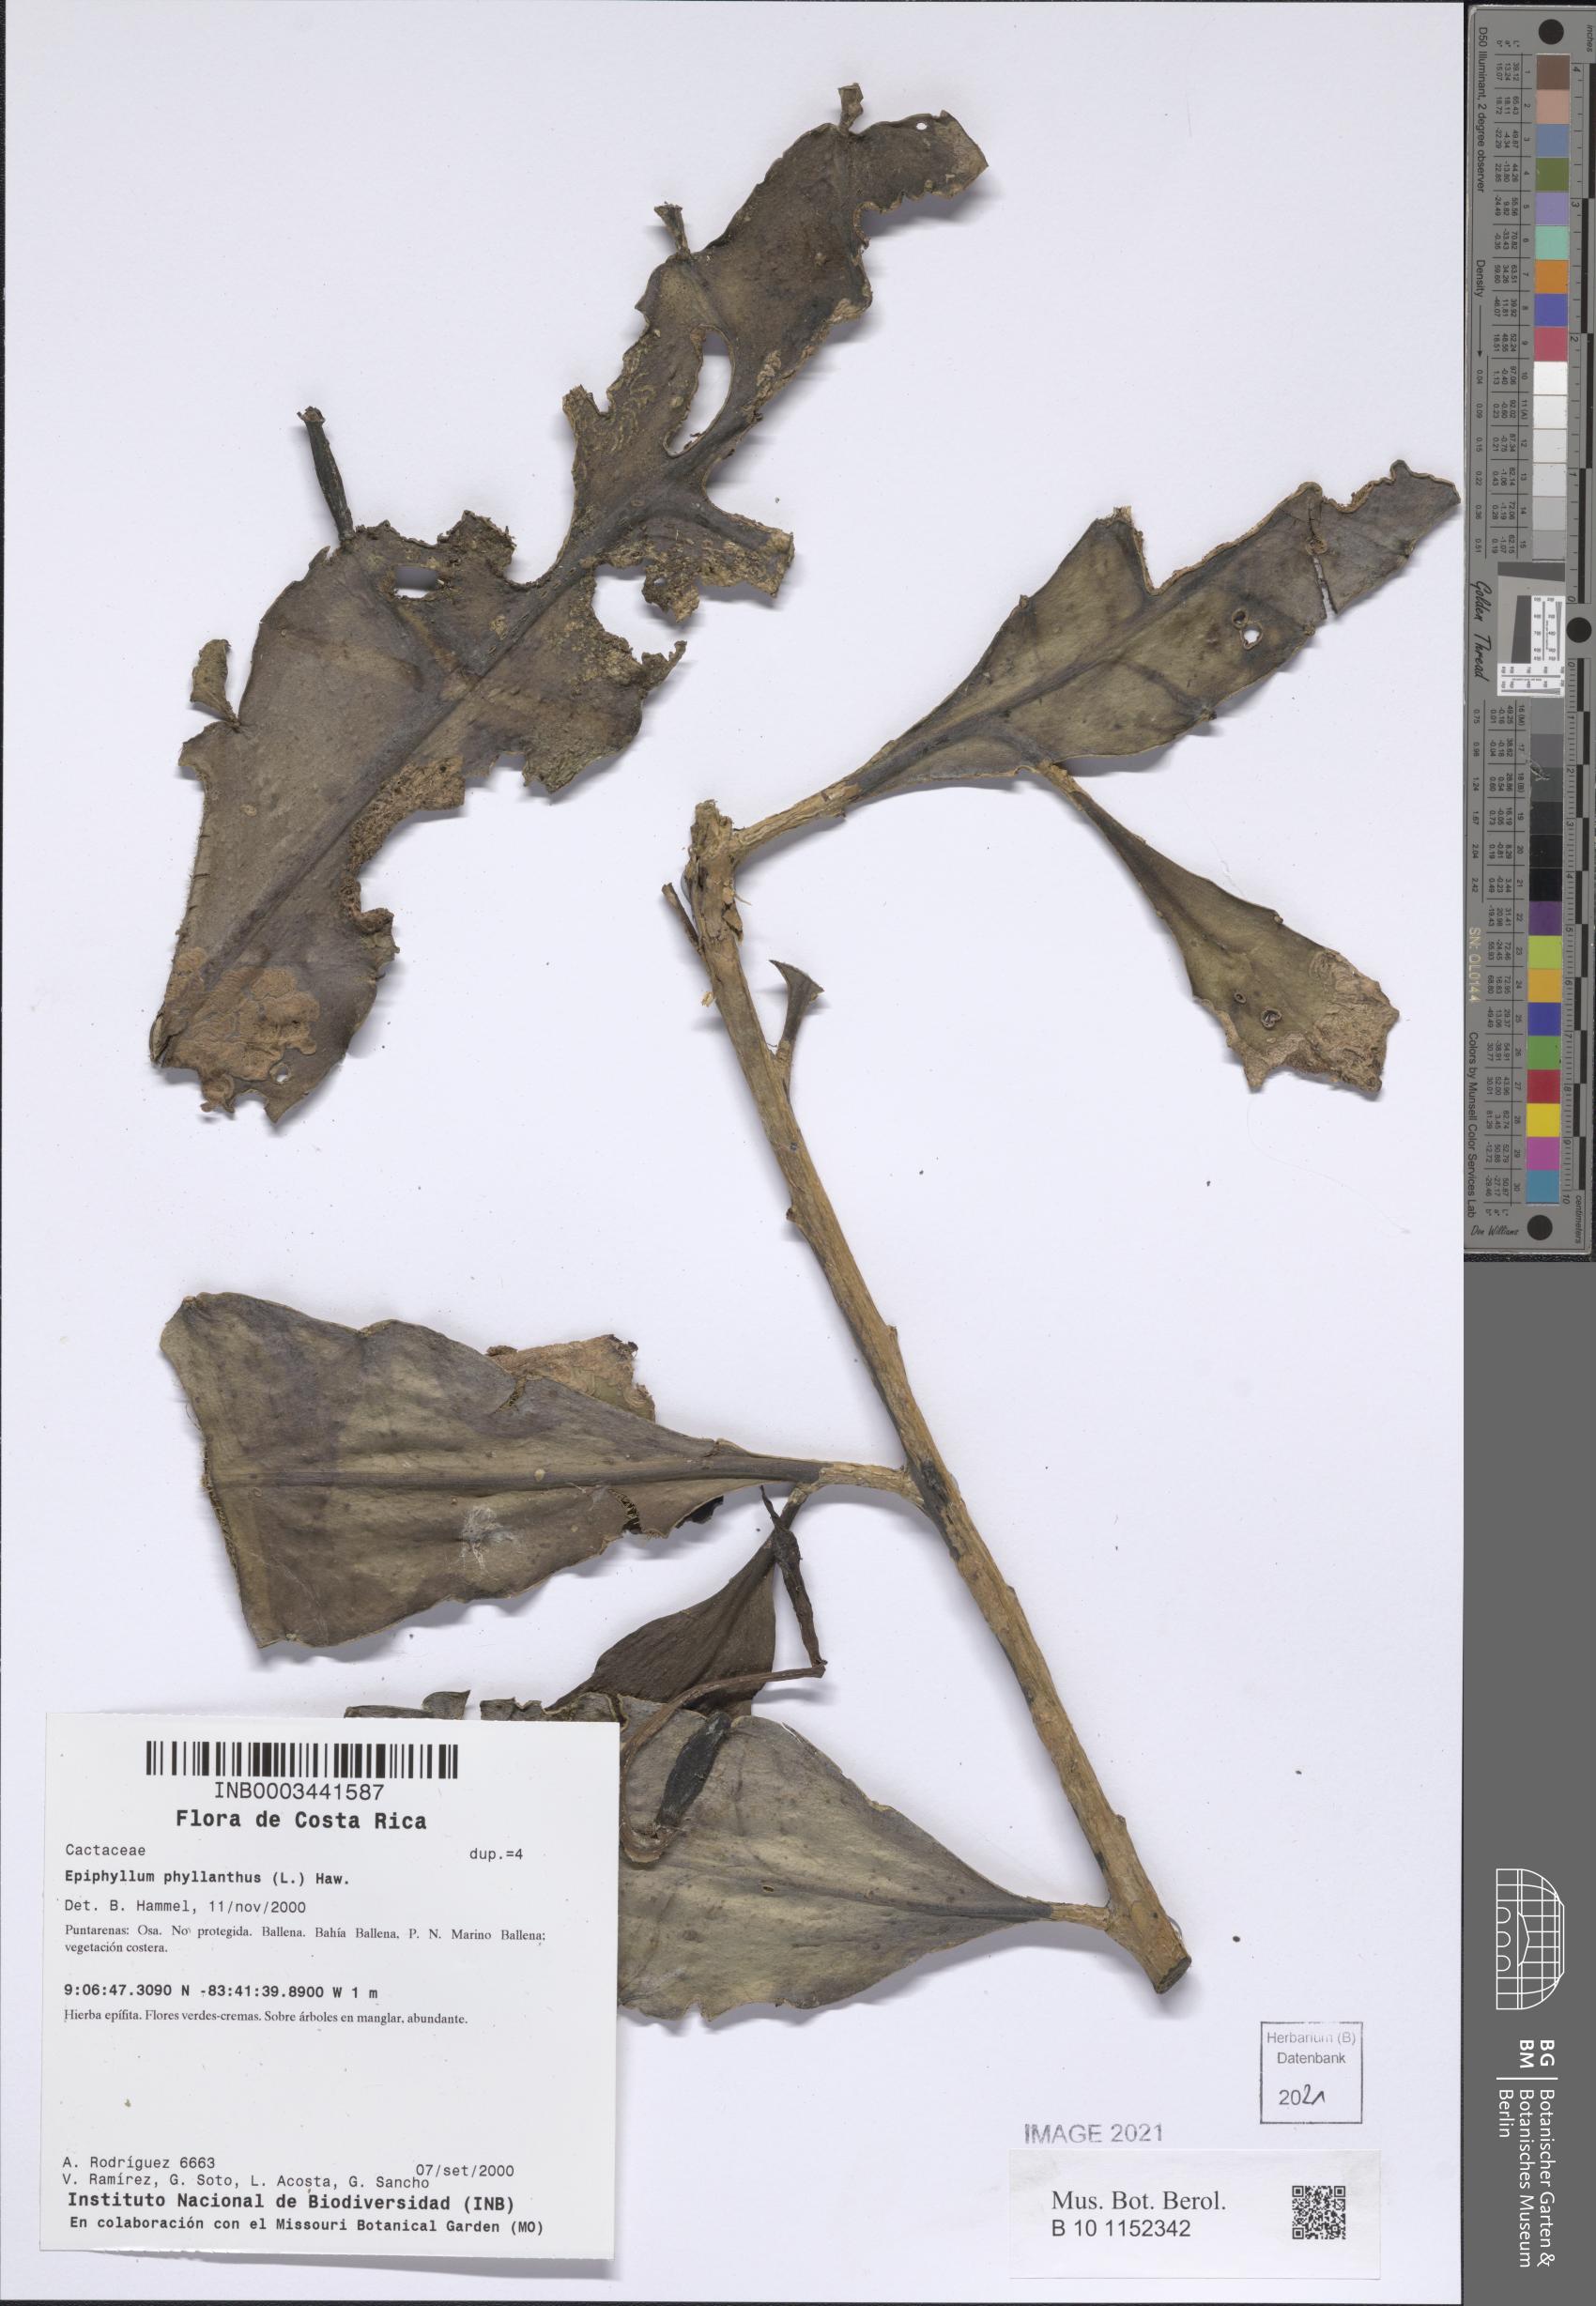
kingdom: Plantae
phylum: Tracheophyta
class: Magnoliopsida
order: Caryophyllales
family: Cactaceae
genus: Epiphyllum
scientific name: Epiphyllum hookeri
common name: Climbing cactus
